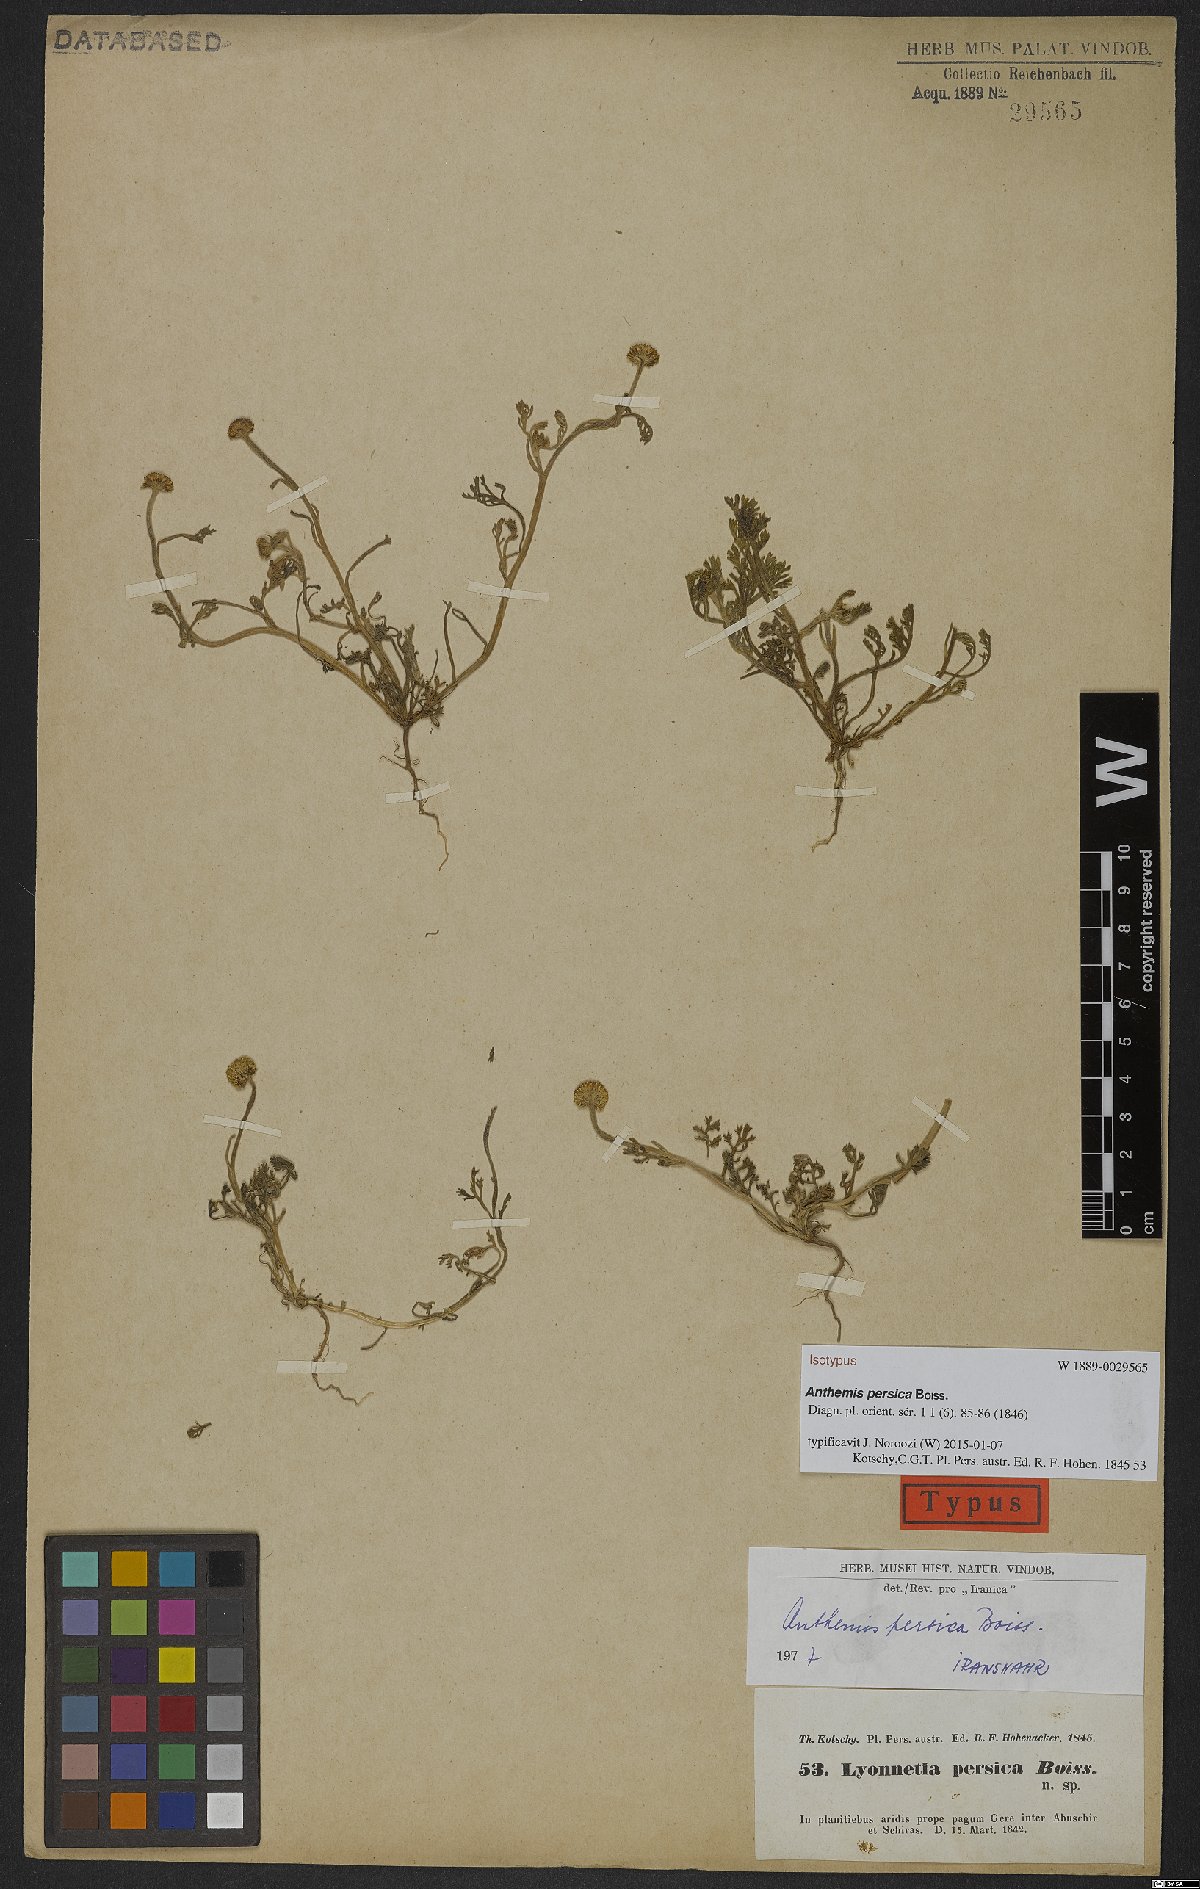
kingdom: Plantae
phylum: Tracheophyta
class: Magnoliopsida
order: Asterales
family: Asteraceae
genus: Anthemis
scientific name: Anthemis persica
